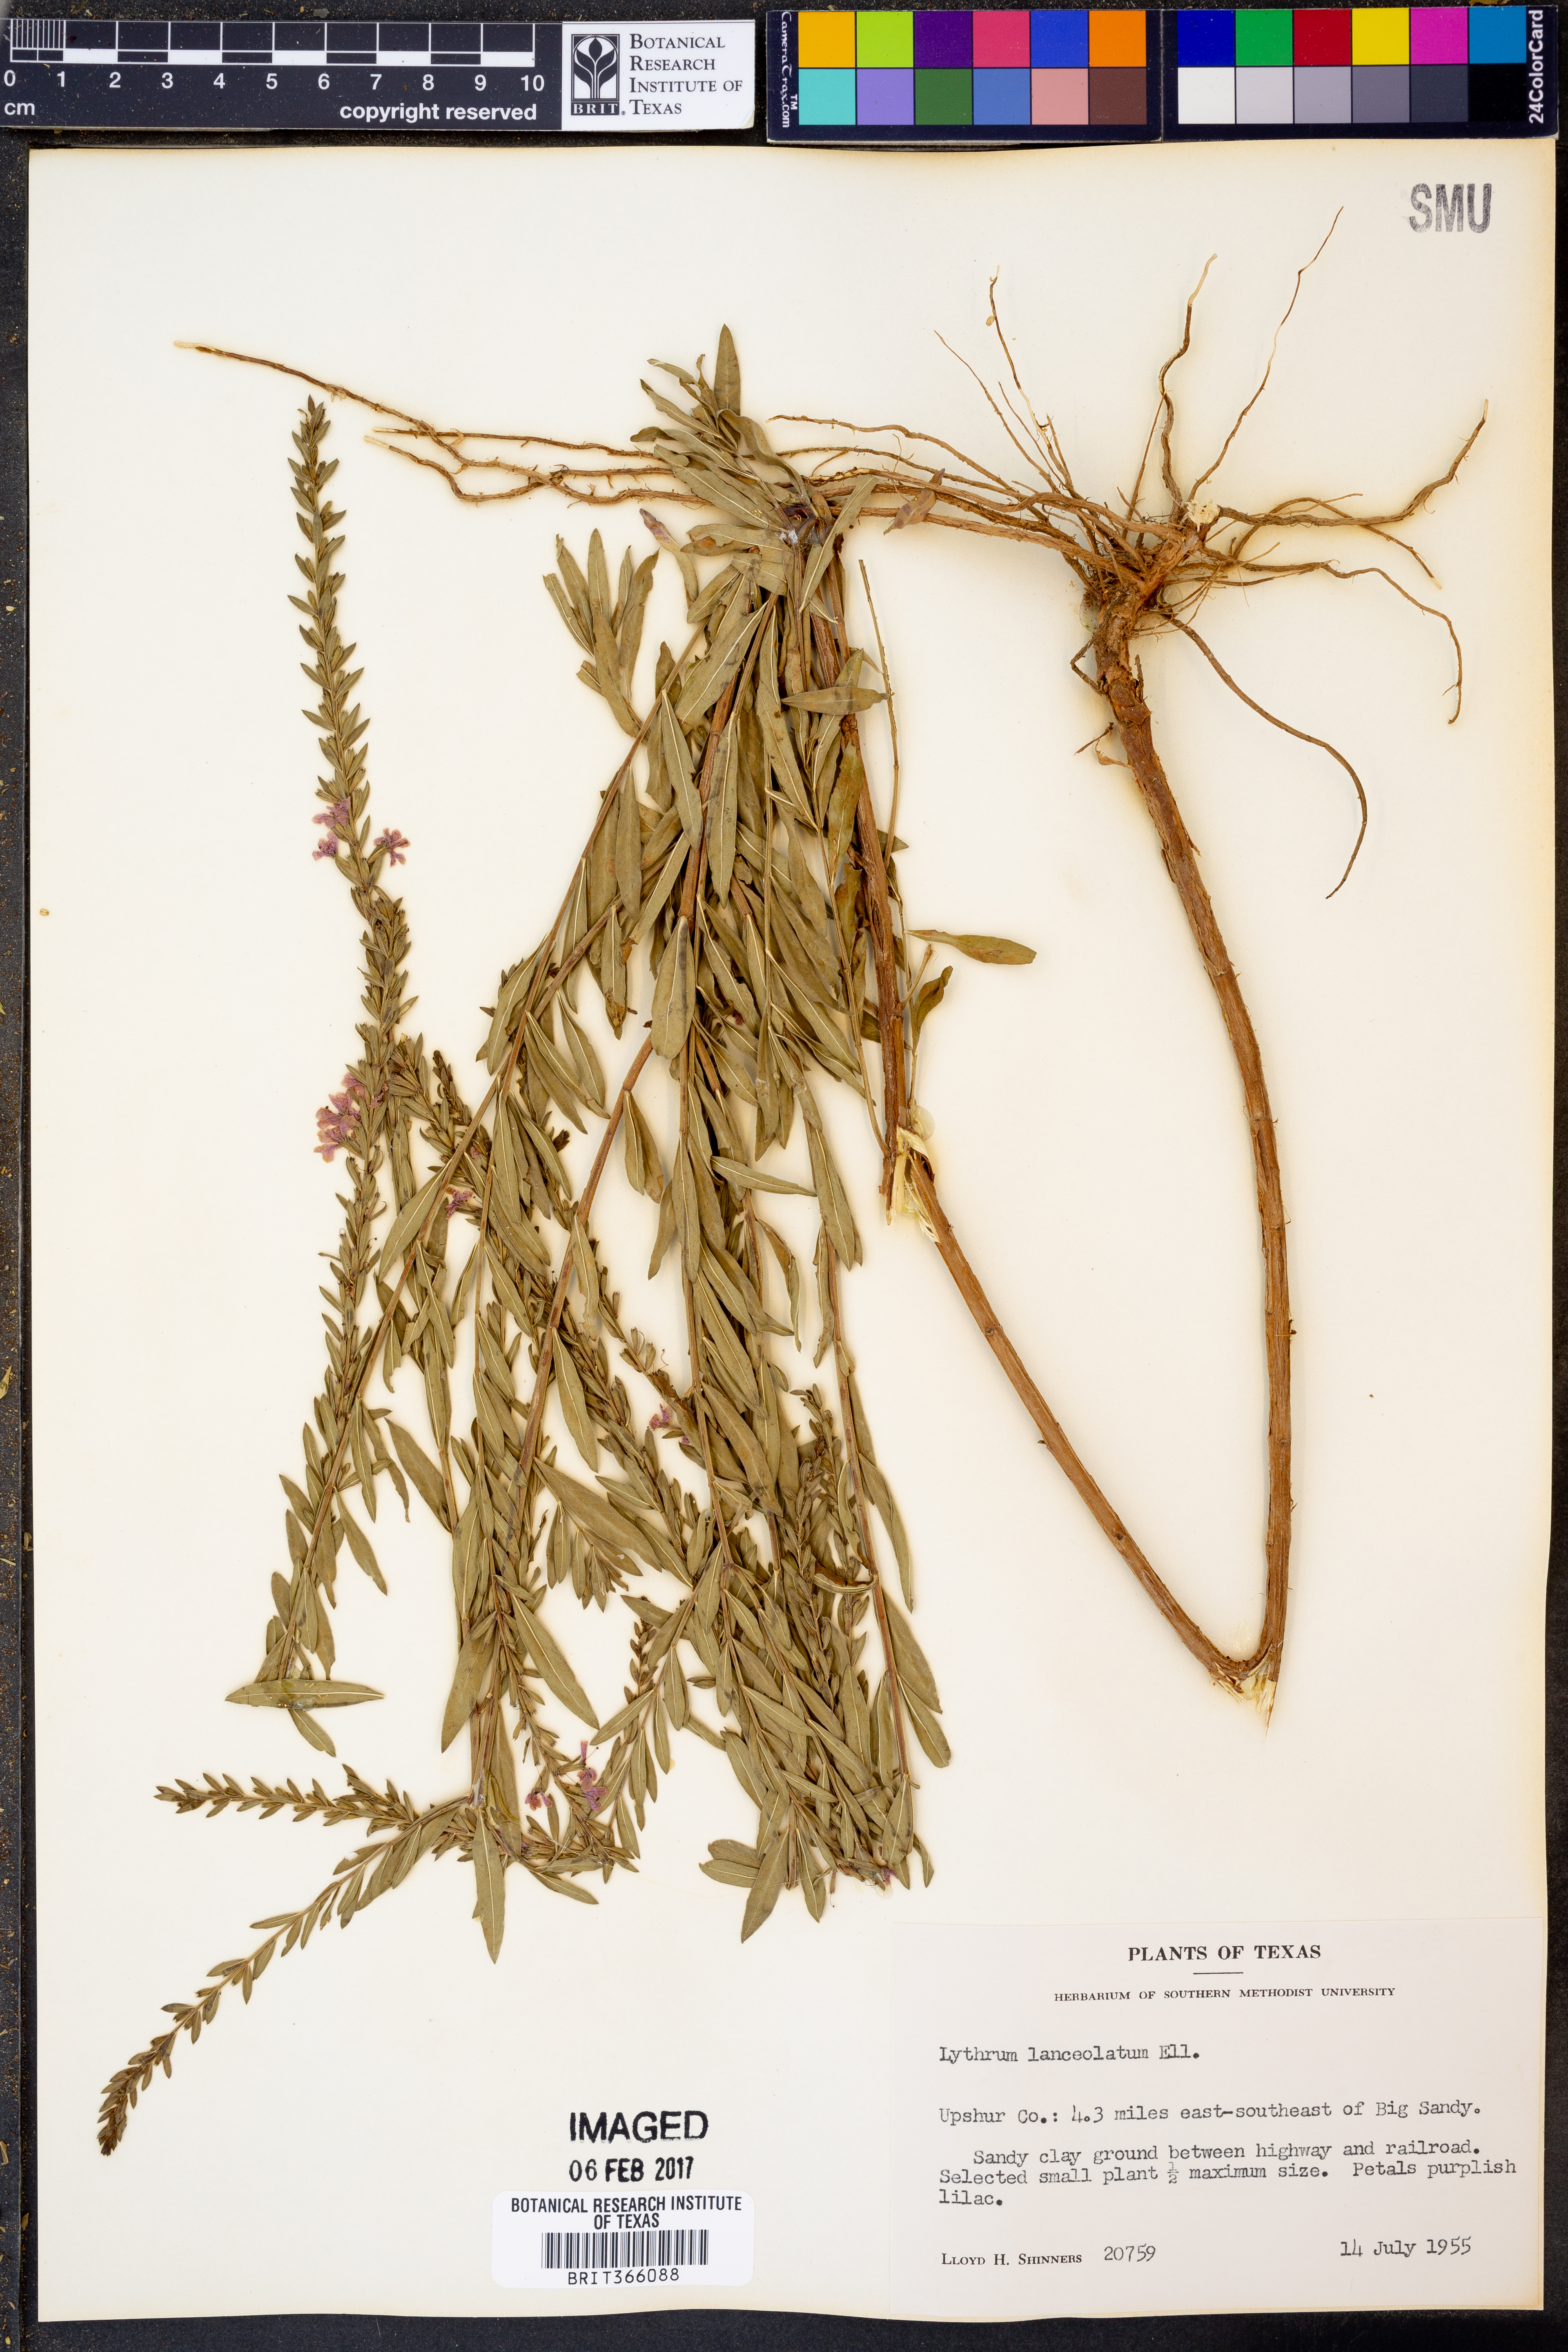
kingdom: Plantae
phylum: Tracheophyta
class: Magnoliopsida
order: Myrtales
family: Lythraceae
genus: Lythrum
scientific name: Lythrum alatum
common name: Winged loosestrife
